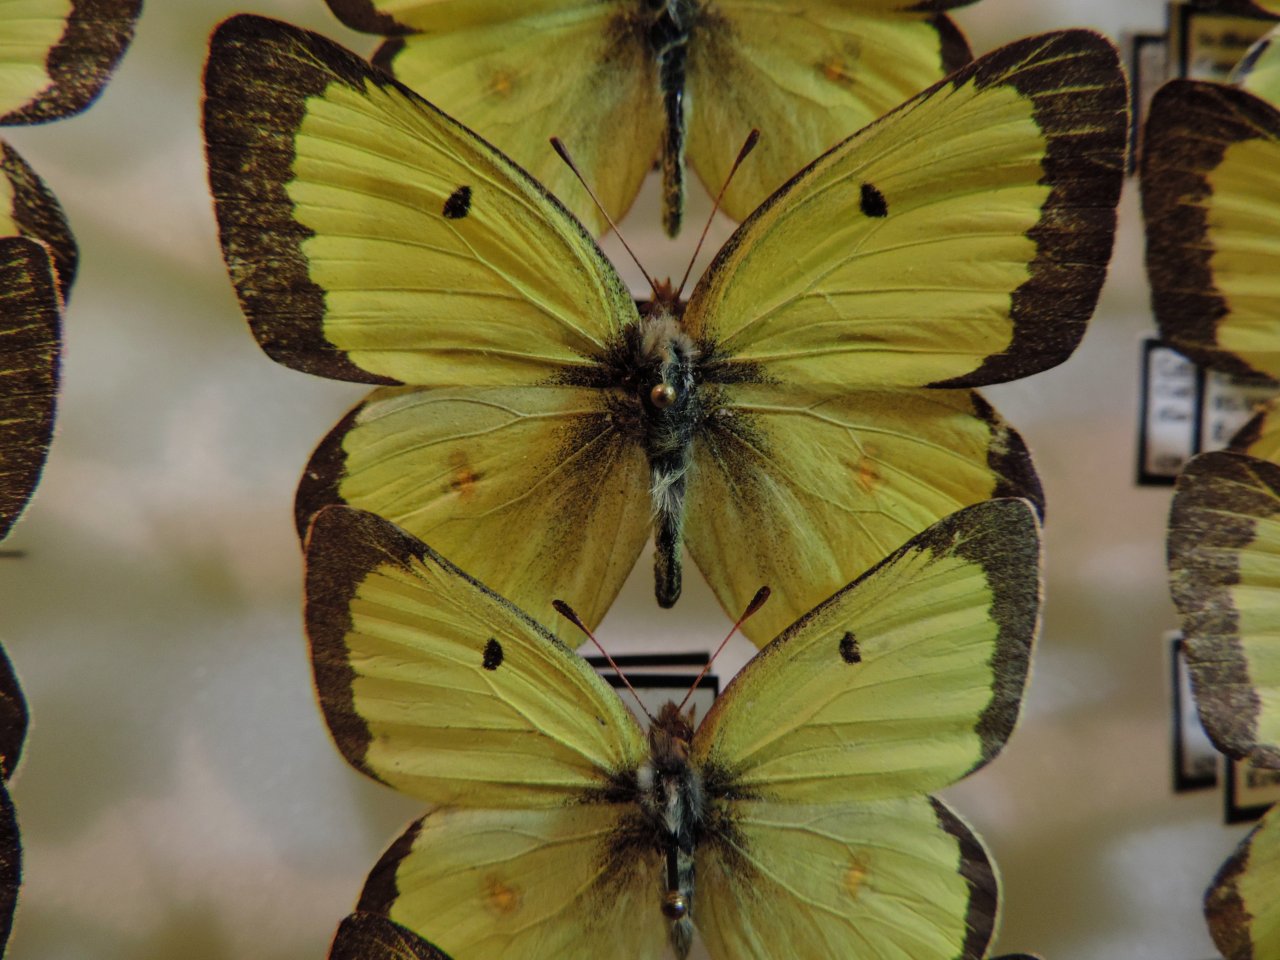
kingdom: Animalia
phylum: Arthropoda
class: Insecta
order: Lepidoptera
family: Pieridae
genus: Colias
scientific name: Colias philodice
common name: Clouded Sulphur
